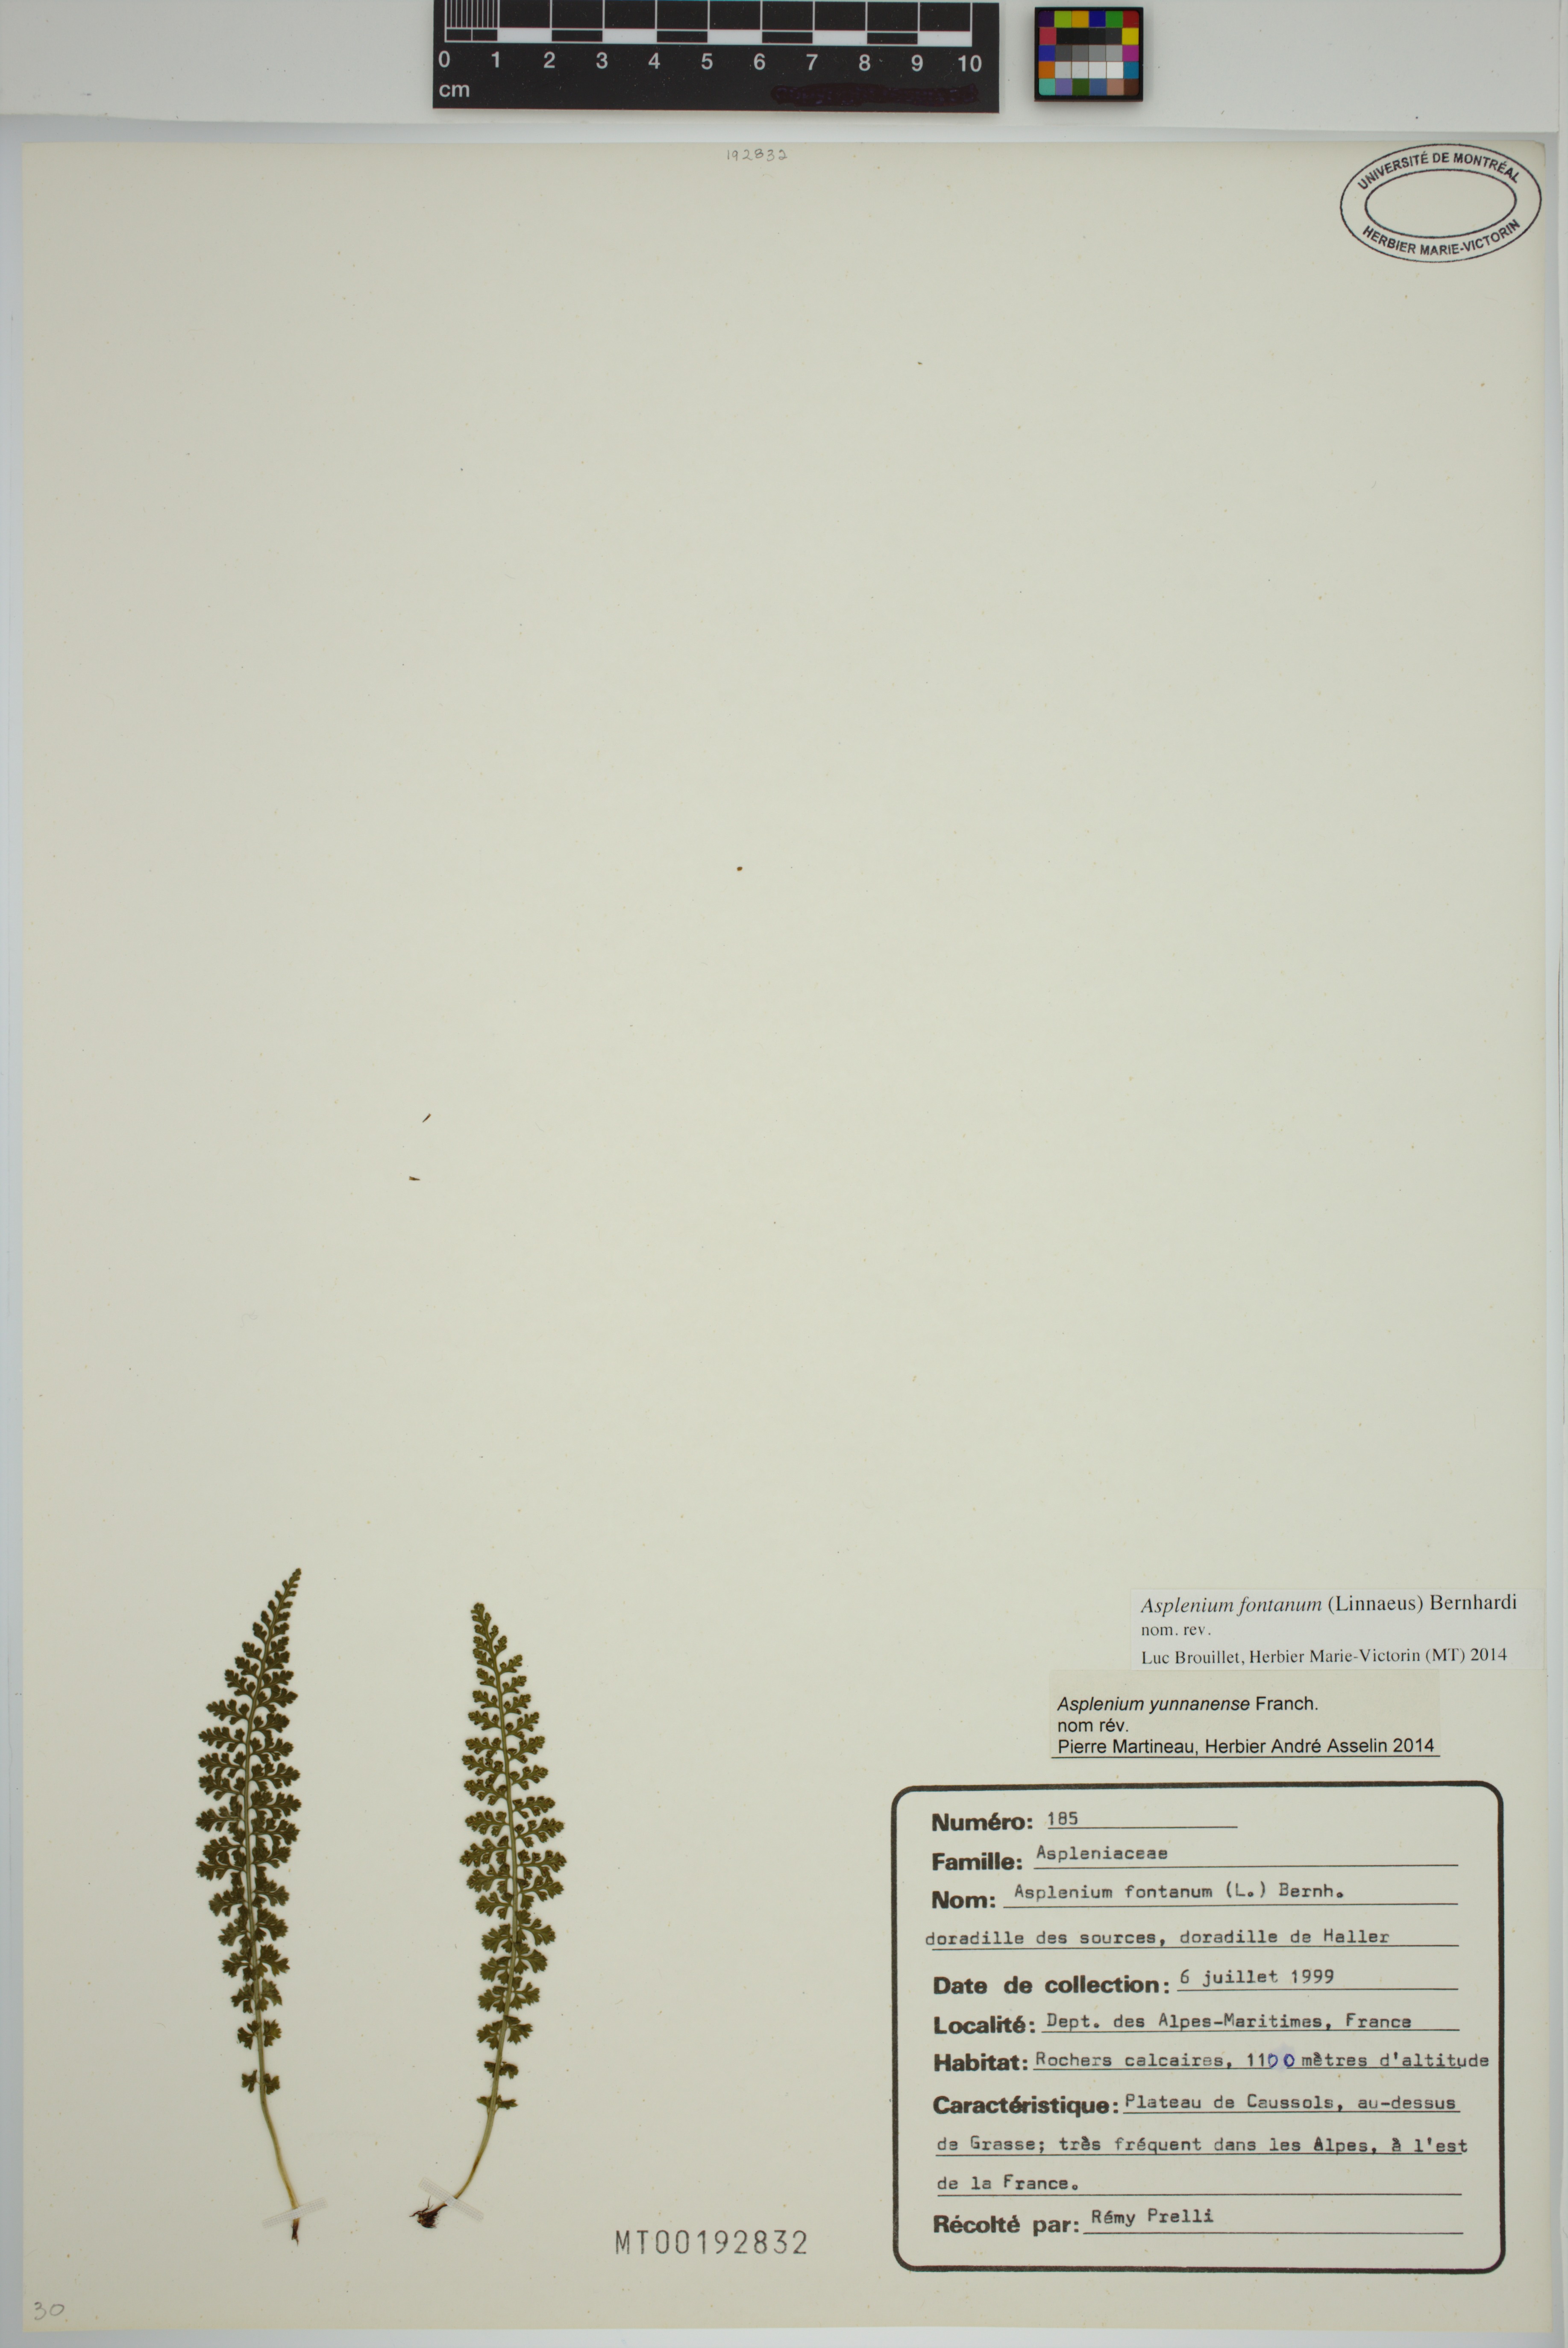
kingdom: Plantae
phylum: Tracheophyta
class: Polypodiopsida
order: Polypodiales
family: Aspleniaceae
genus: Asplenium
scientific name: Asplenium fontanum
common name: Fountain spleenwort
